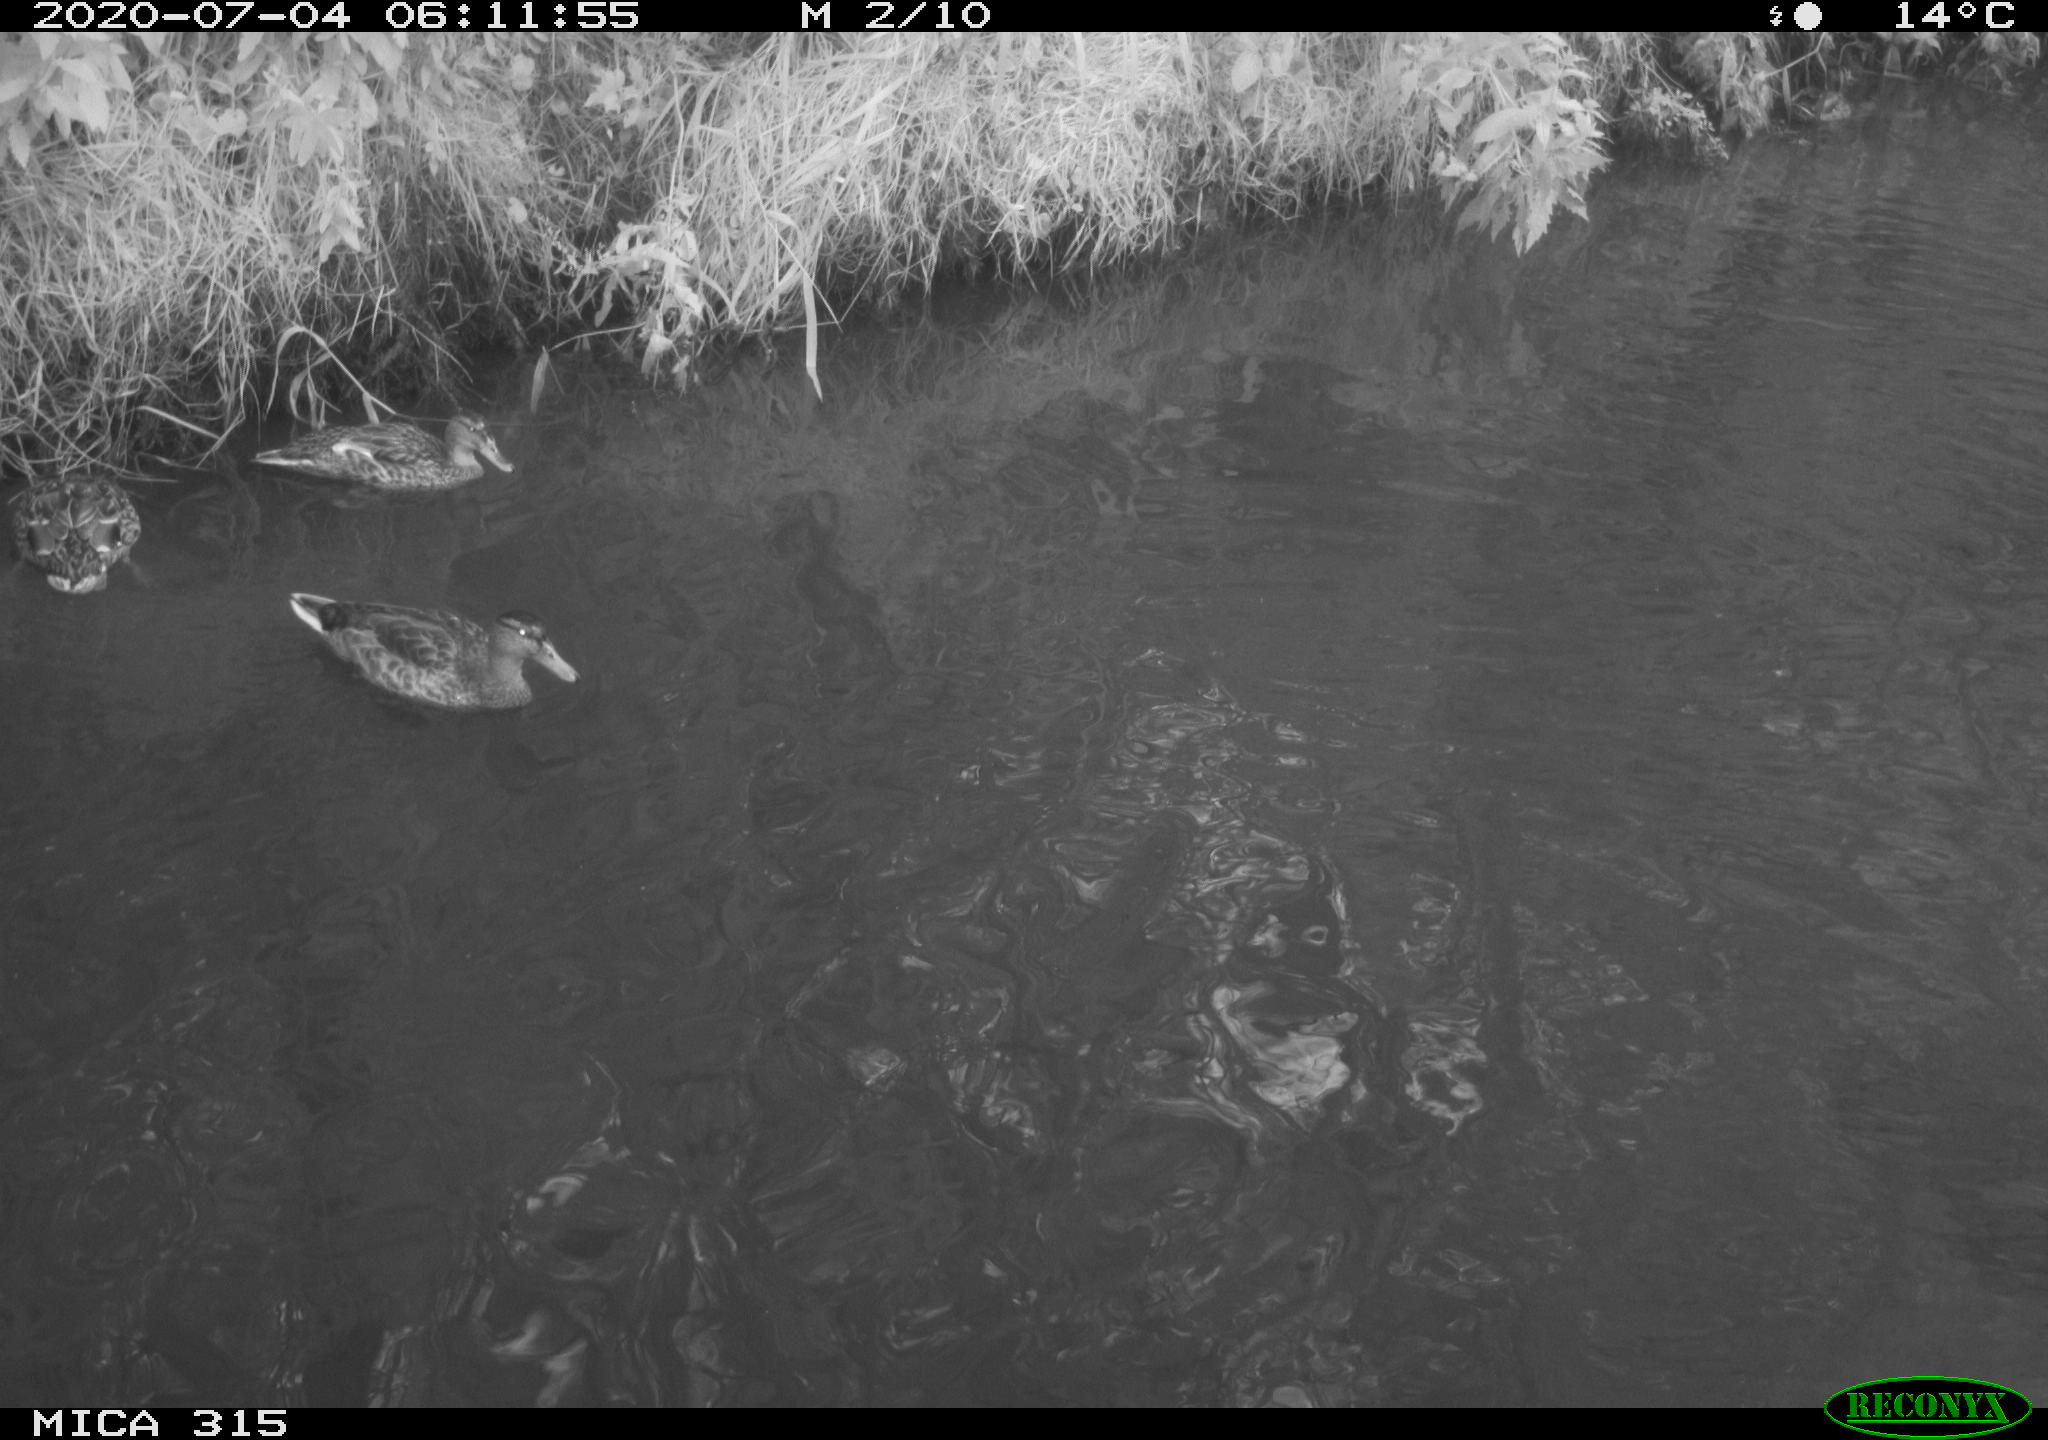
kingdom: Animalia
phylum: Chordata
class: Aves
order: Anseriformes
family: Anatidae
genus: Anas
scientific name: Anas platyrhynchos
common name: Mallard
